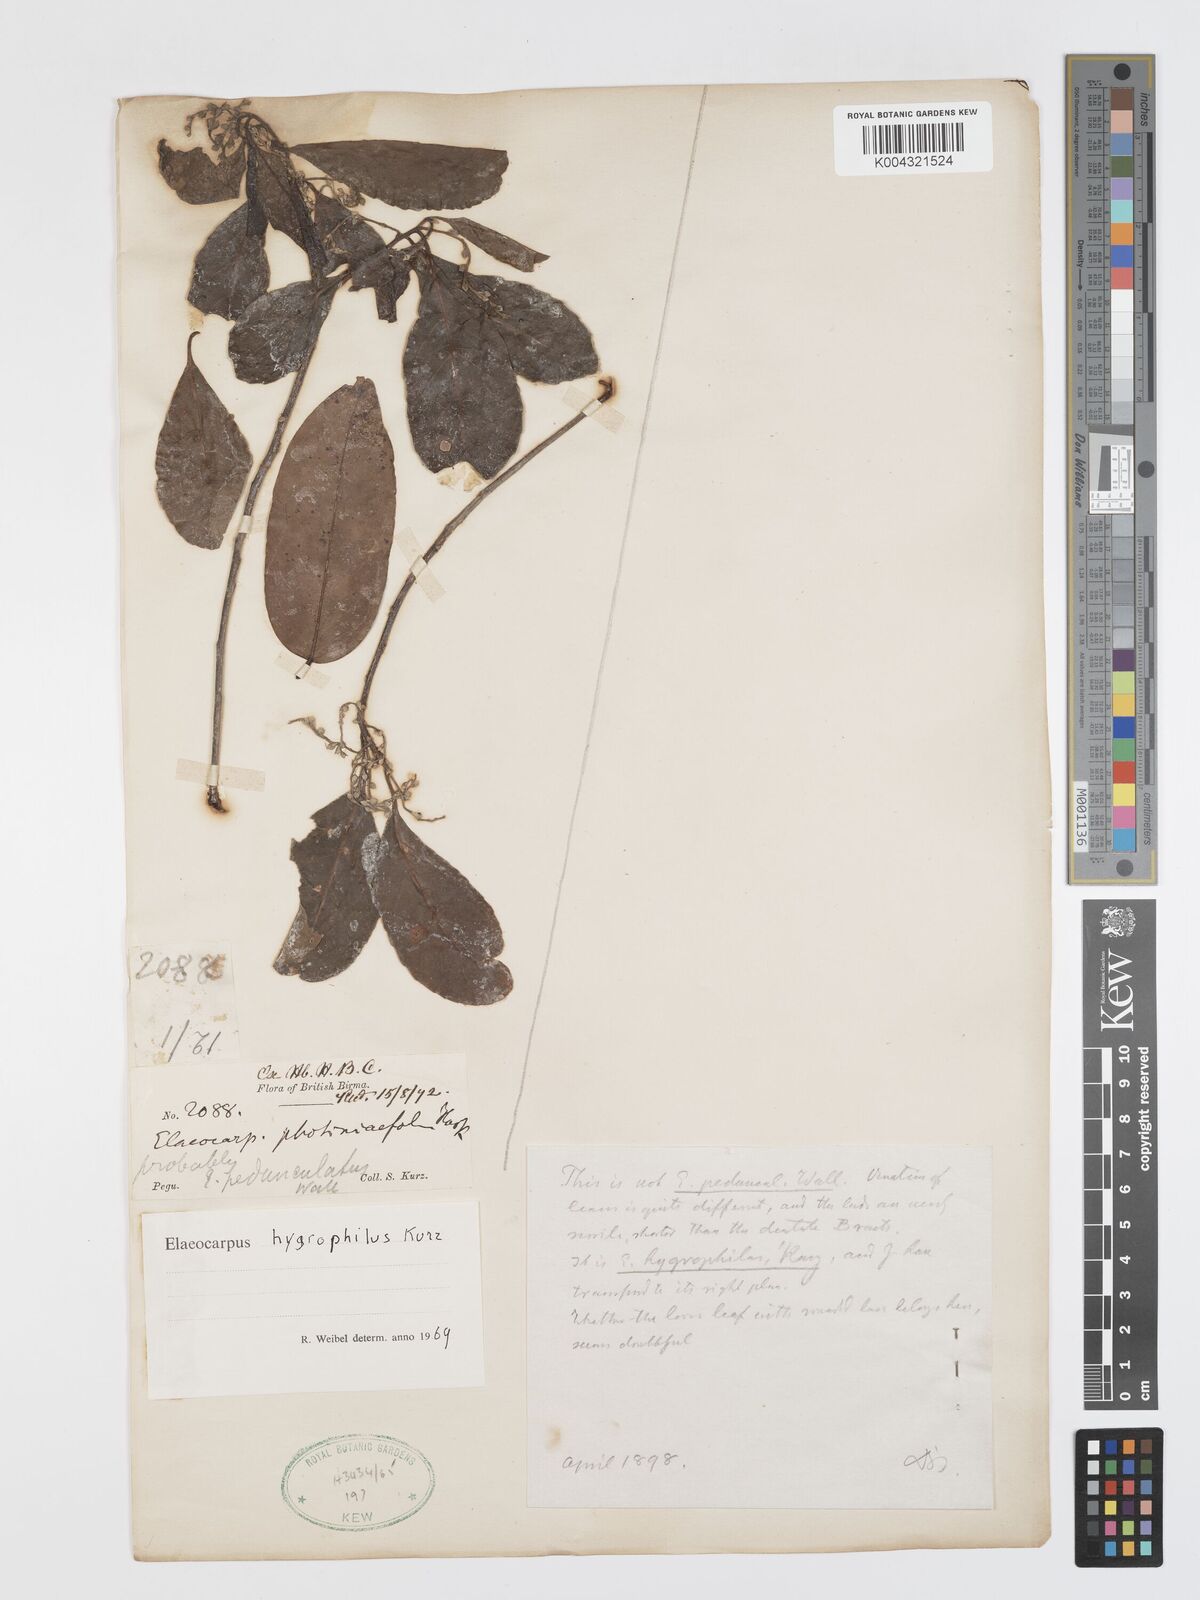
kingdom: Plantae
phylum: Tracheophyta
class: Magnoliopsida
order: Oxalidales
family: Elaeocarpaceae
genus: Elaeocarpus
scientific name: Elaeocarpus hygrophilus
